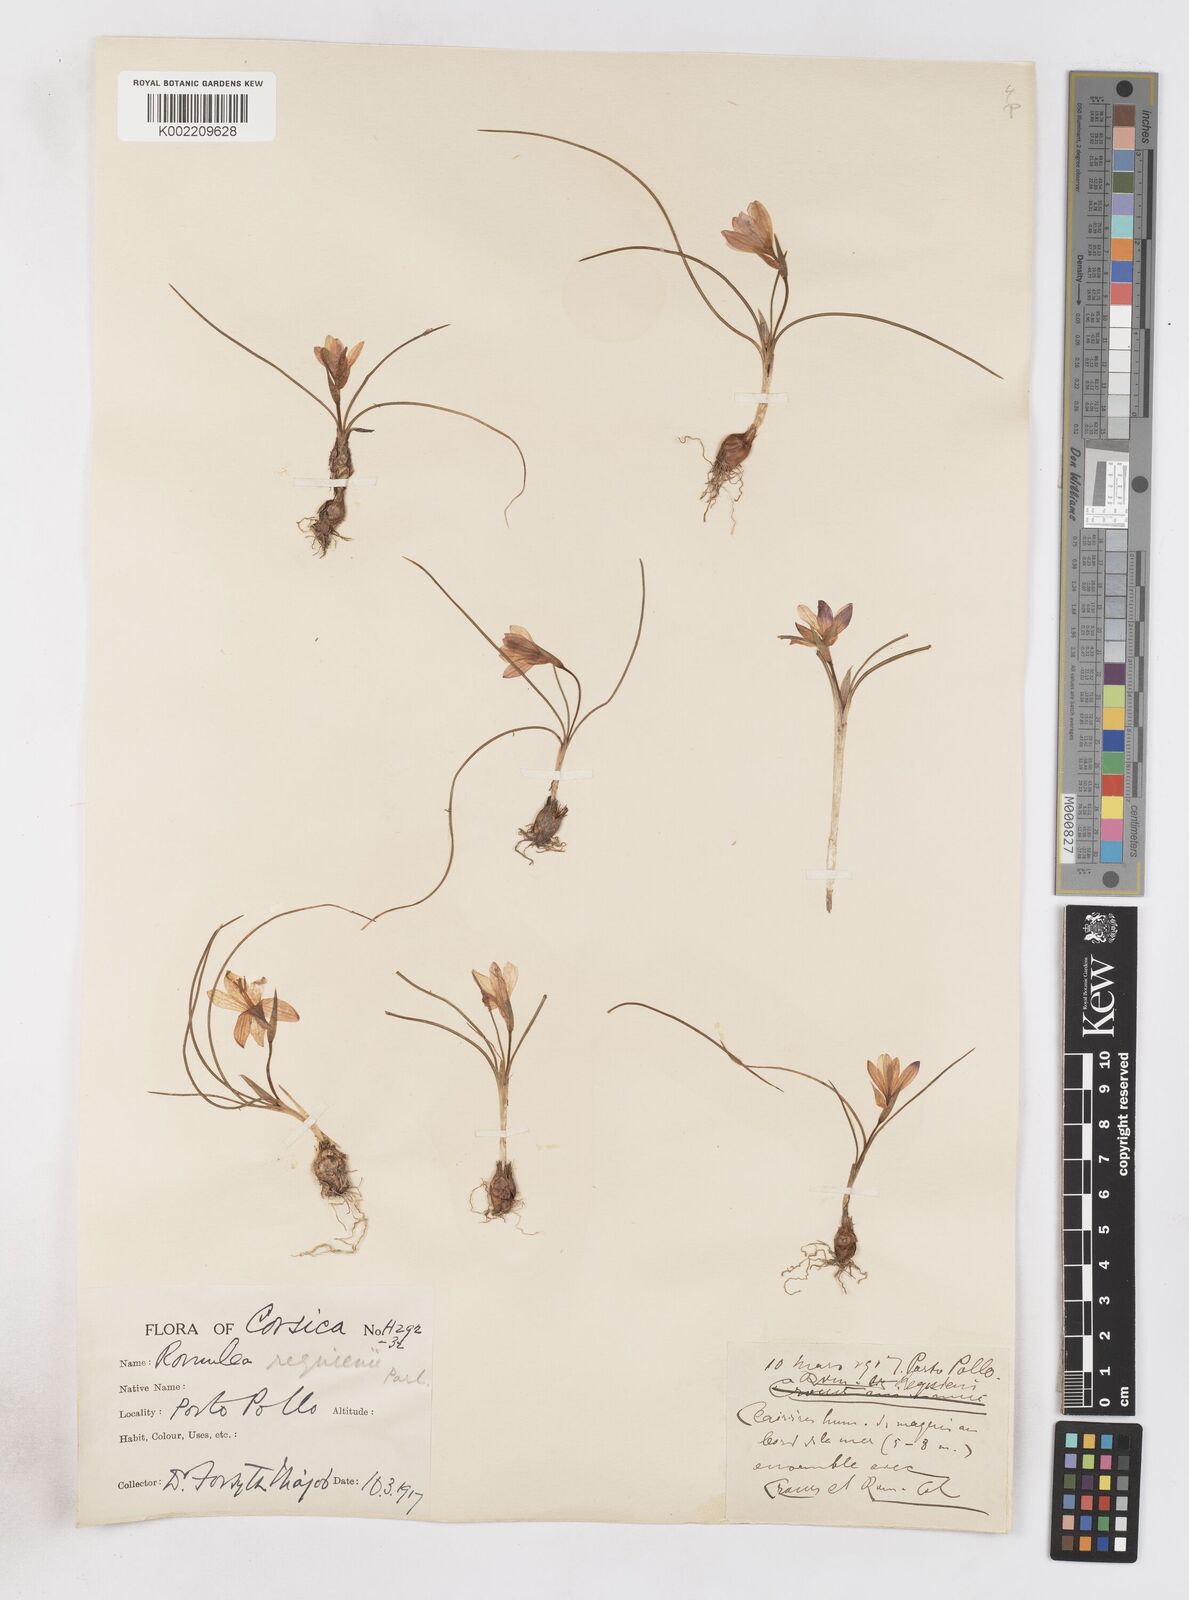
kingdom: Plantae
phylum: Tracheophyta
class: Liliopsida
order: Asparagales
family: Iridaceae
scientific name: Iridaceae
